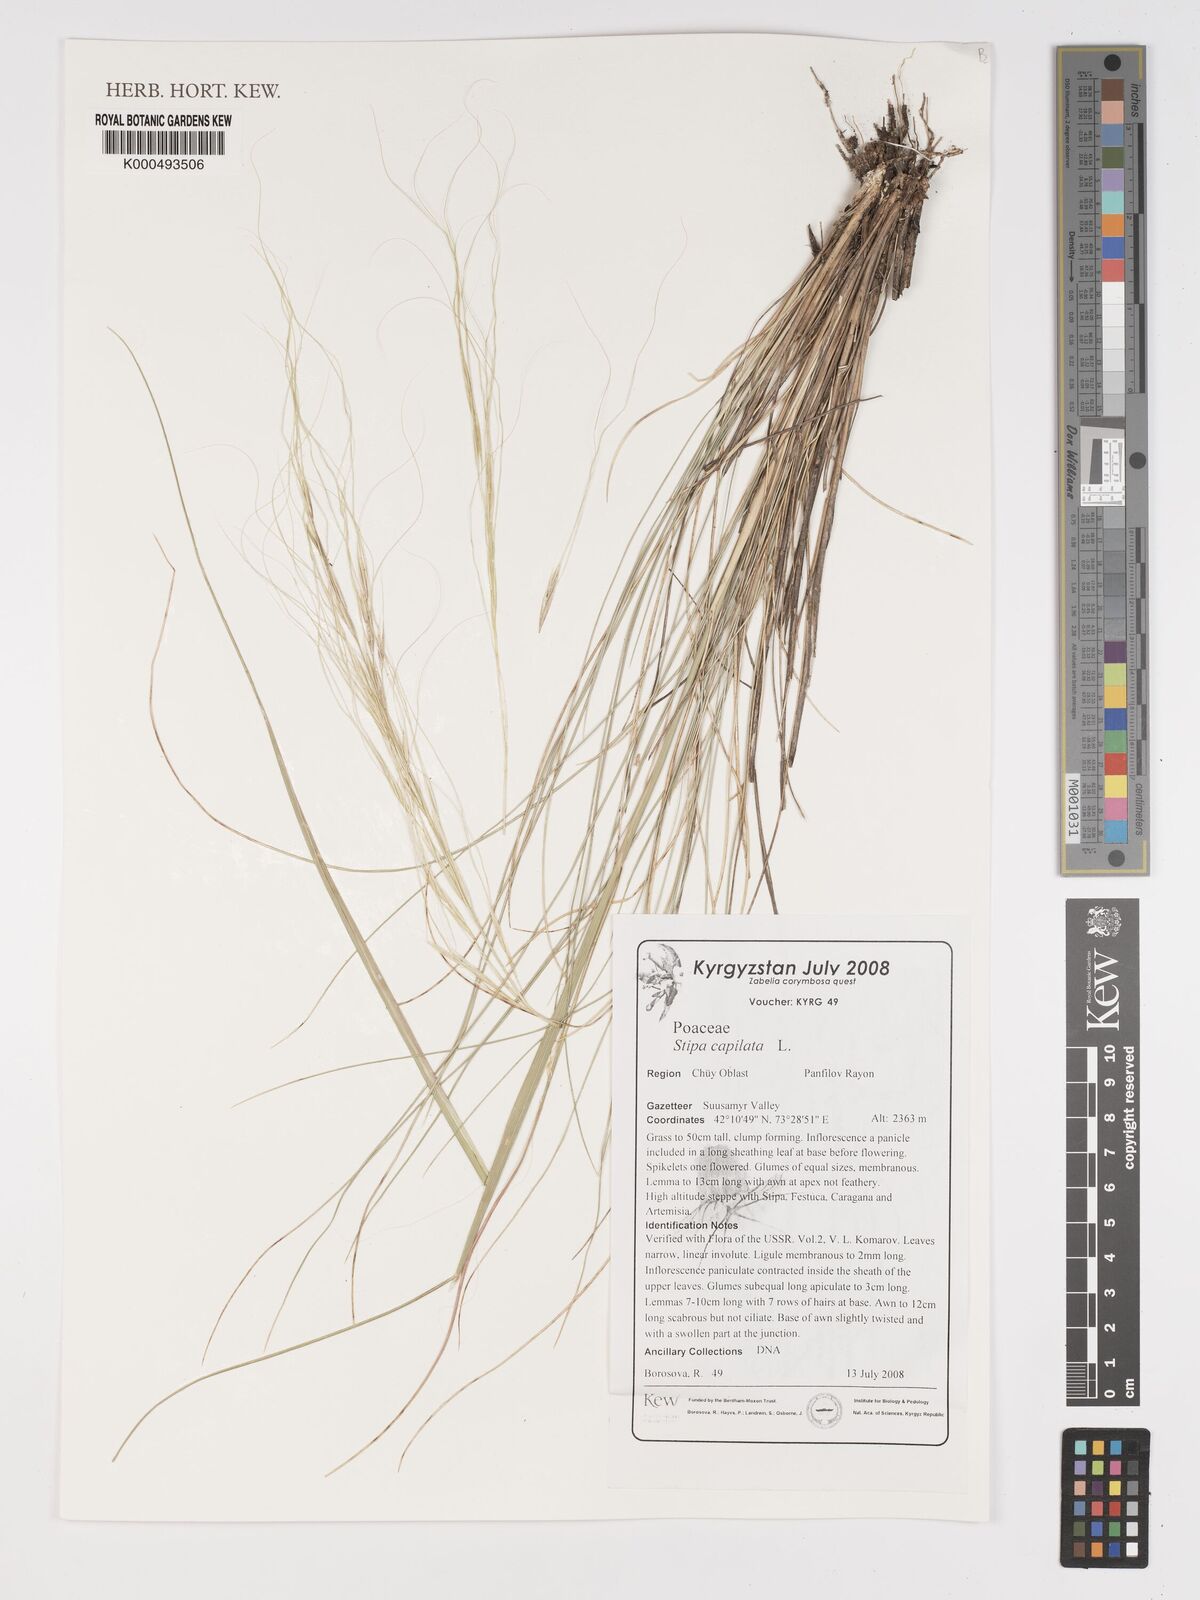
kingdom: Plantae
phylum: Tracheophyta
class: Liliopsida
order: Poales
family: Poaceae
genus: Stipa
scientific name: Stipa capillata
